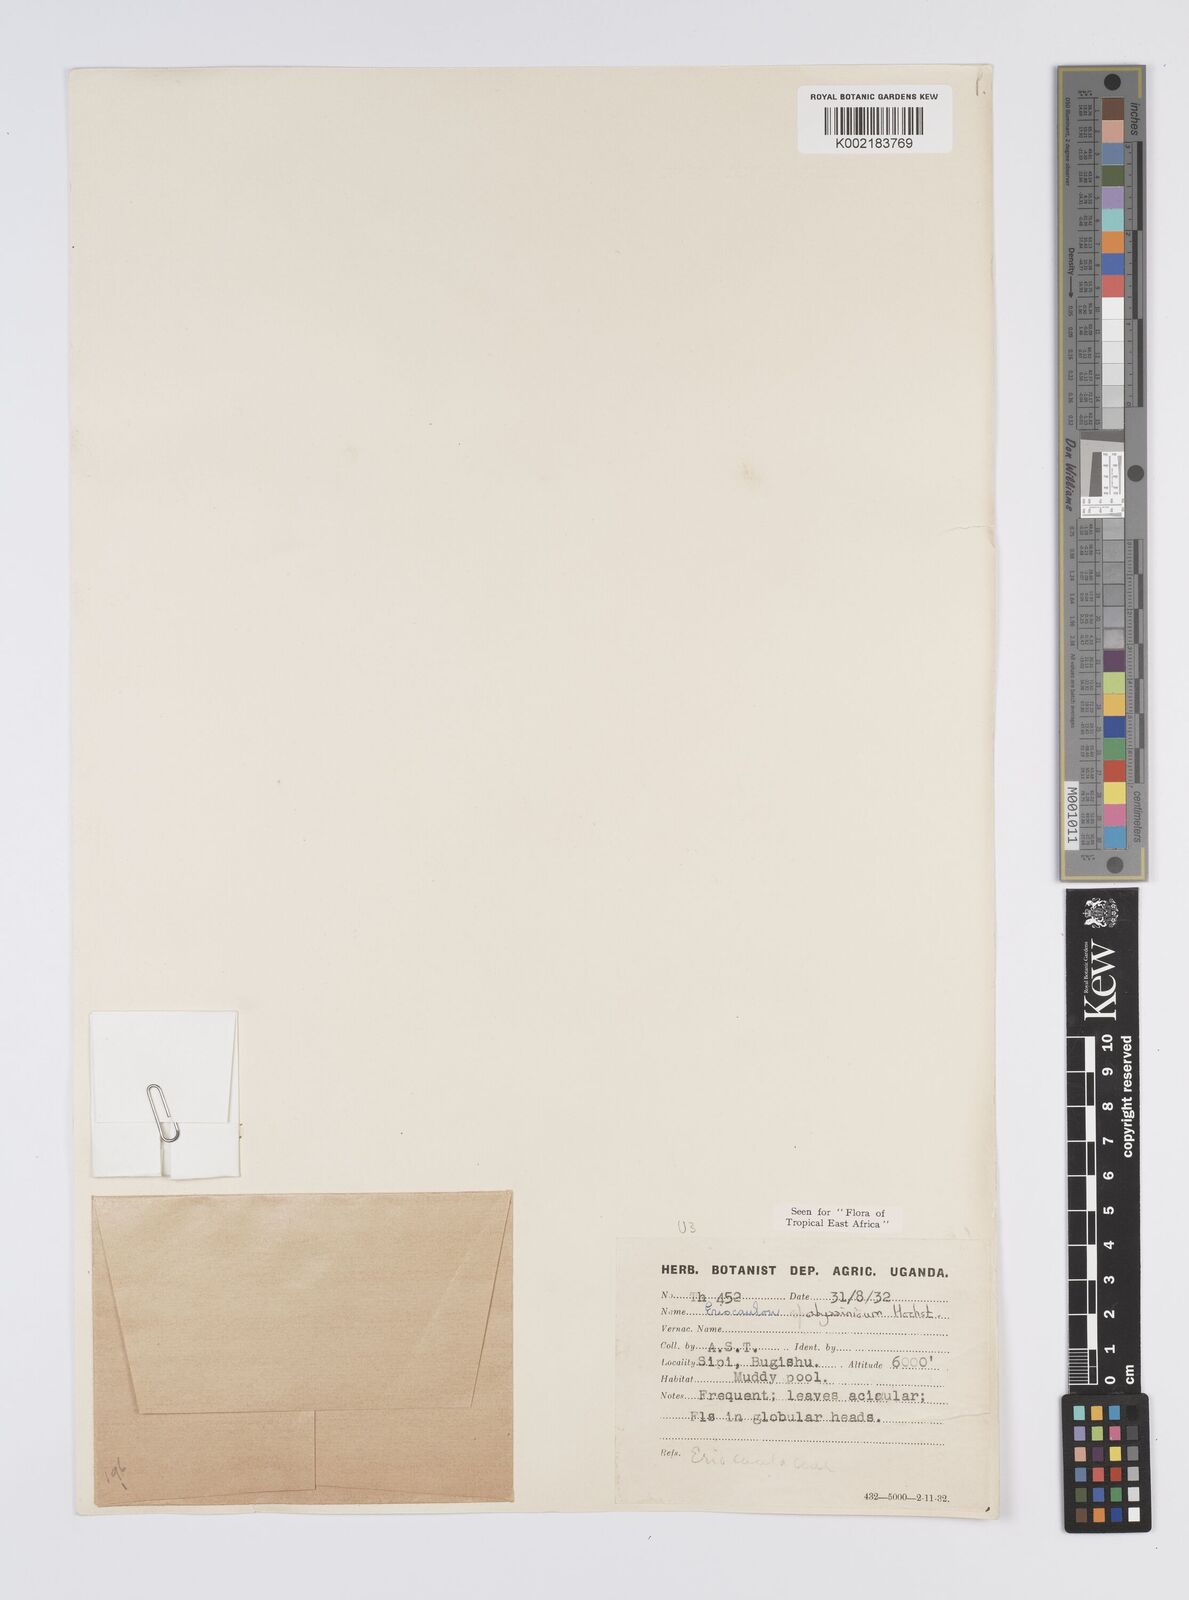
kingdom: Plantae
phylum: Tracheophyta
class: Liliopsida
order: Poales
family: Eriocaulaceae
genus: Eriocaulon
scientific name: Eriocaulon abyssinicum
